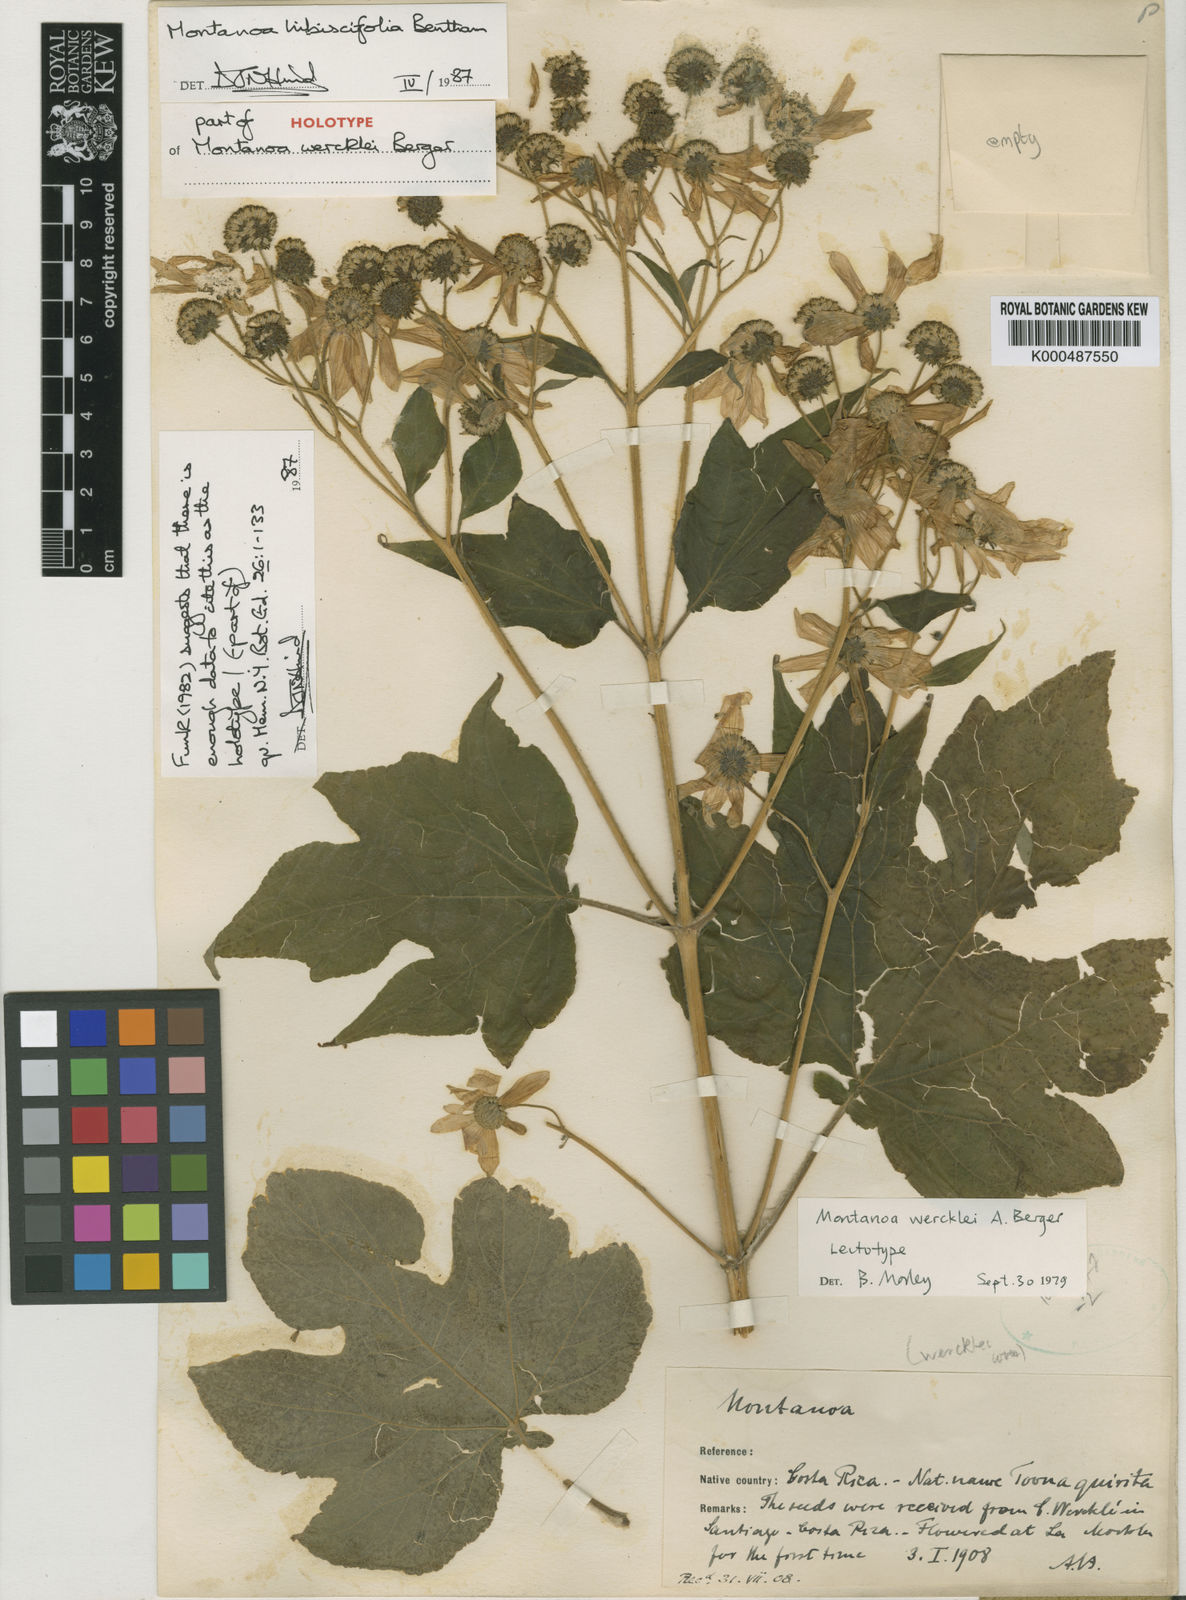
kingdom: Plantae
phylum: Tracheophyta
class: Magnoliopsida
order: Asterales
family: Asteraceae
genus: Montanoa
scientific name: Montanoa hibiscifolia
